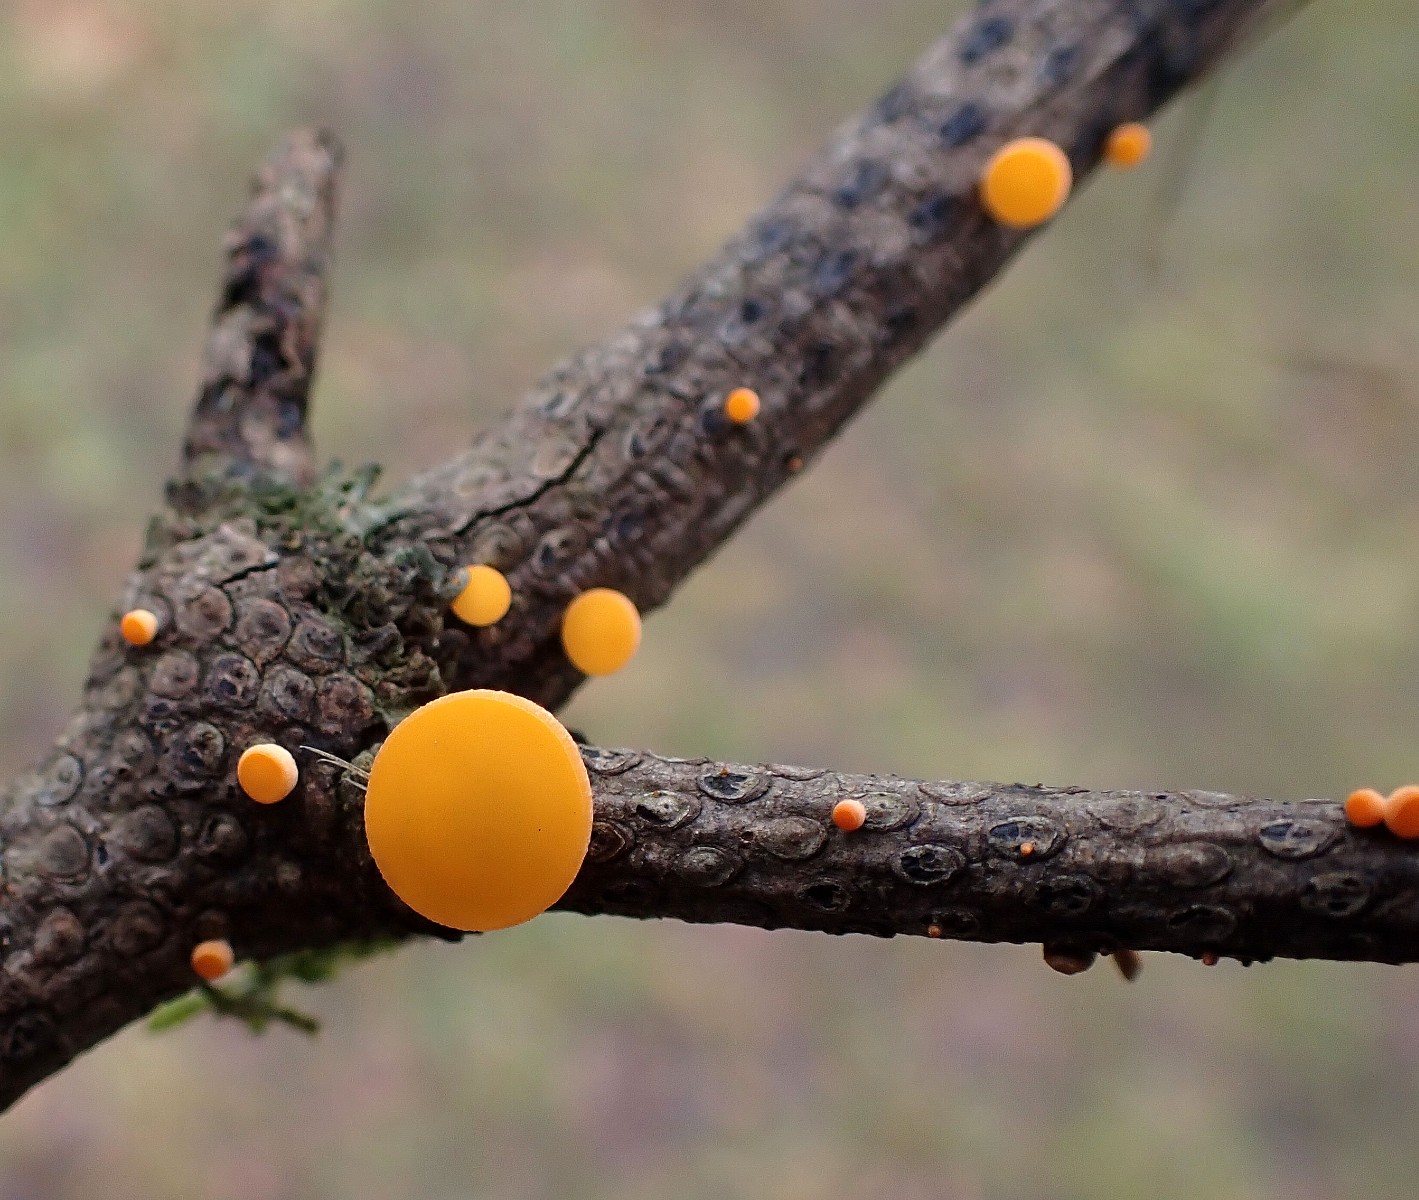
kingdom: Fungi
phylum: Ascomycota
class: Pezizomycetes
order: Pezizales
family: Sarcoscyphaceae
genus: Pithya
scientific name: Pithya vulgaris
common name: stor dukatbæger
